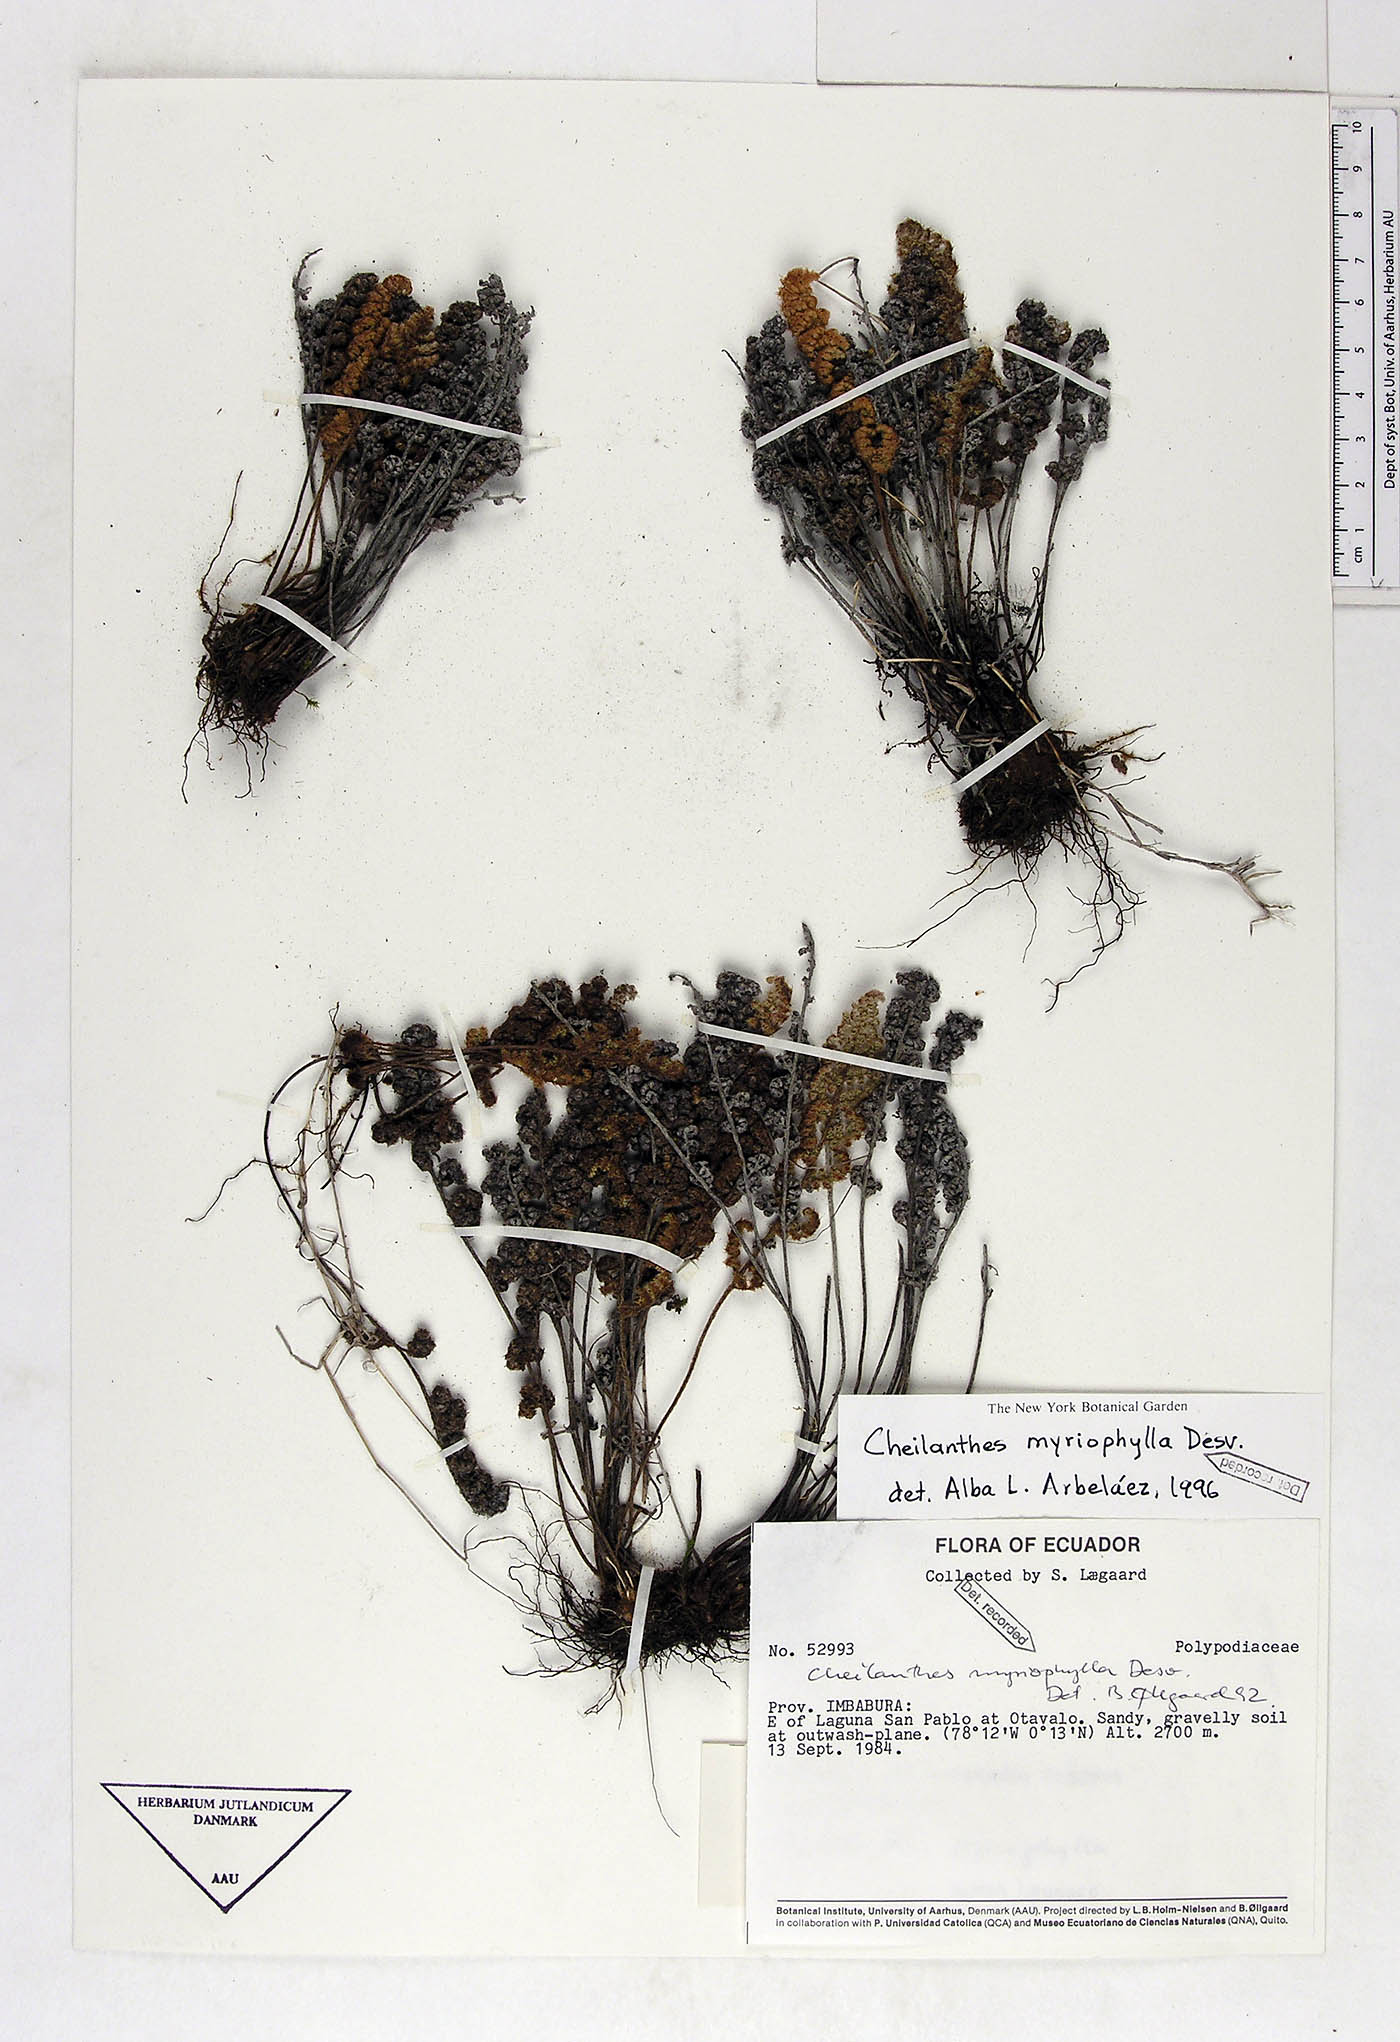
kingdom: Plantae
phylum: Tracheophyta
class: Polypodiopsida
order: Polypodiales
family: Pteridaceae
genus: Myriopteris
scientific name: Myriopteris myriophylla
